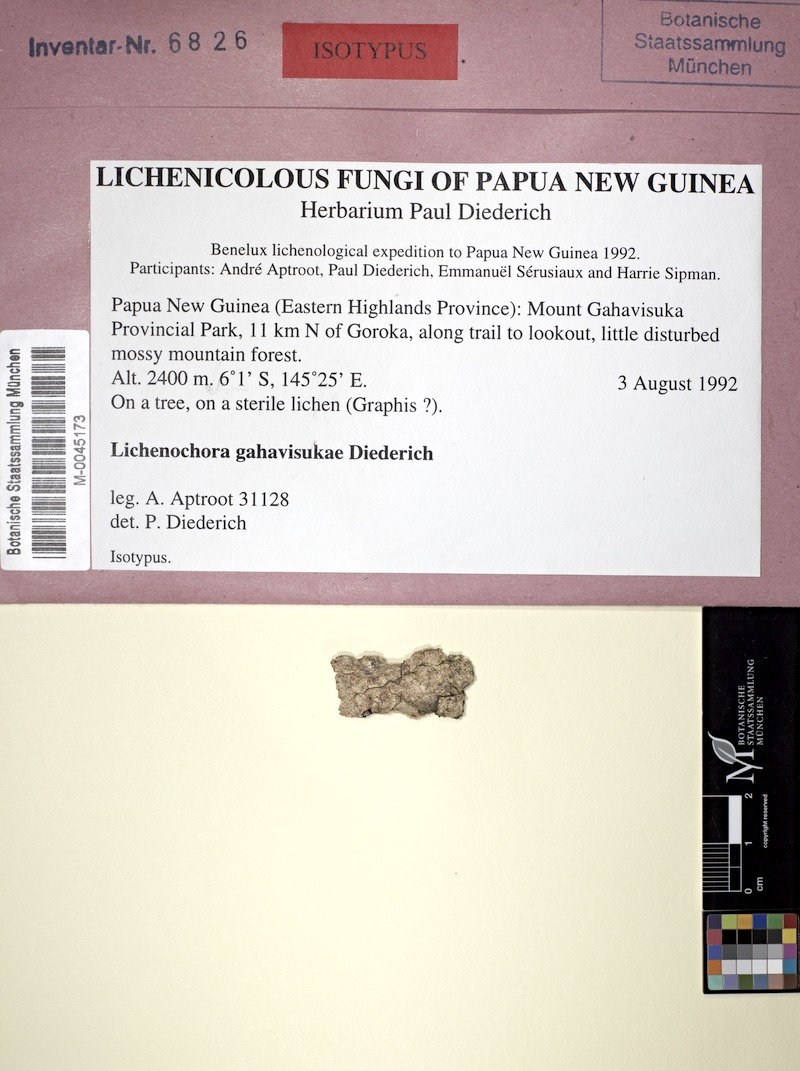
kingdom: Fungi
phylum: Ascomycota
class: Sordariomycetes
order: Phyllachorales
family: Phyllachoraceae
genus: Lichenochora
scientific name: Lichenochora gahavisukae
